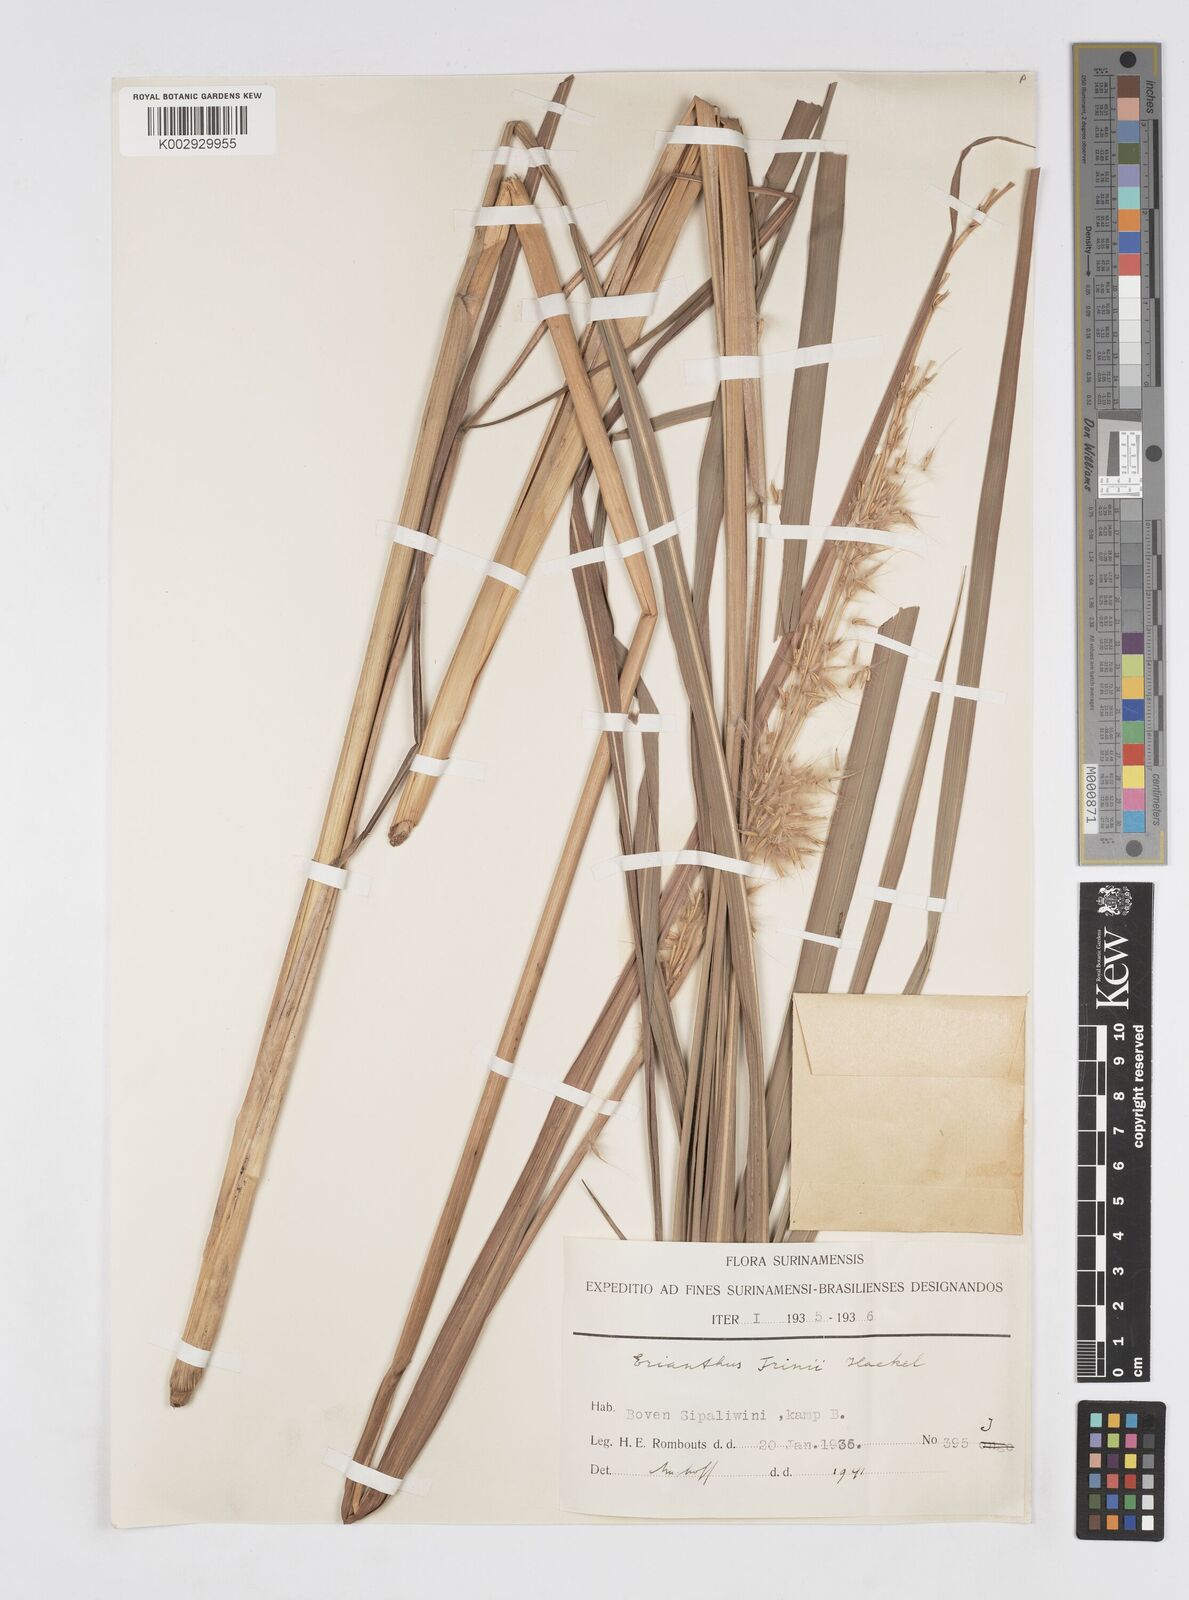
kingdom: Plantae
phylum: Tracheophyta
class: Liliopsida
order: Poales
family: Poaceae
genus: Saccharum
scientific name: Saccharum
